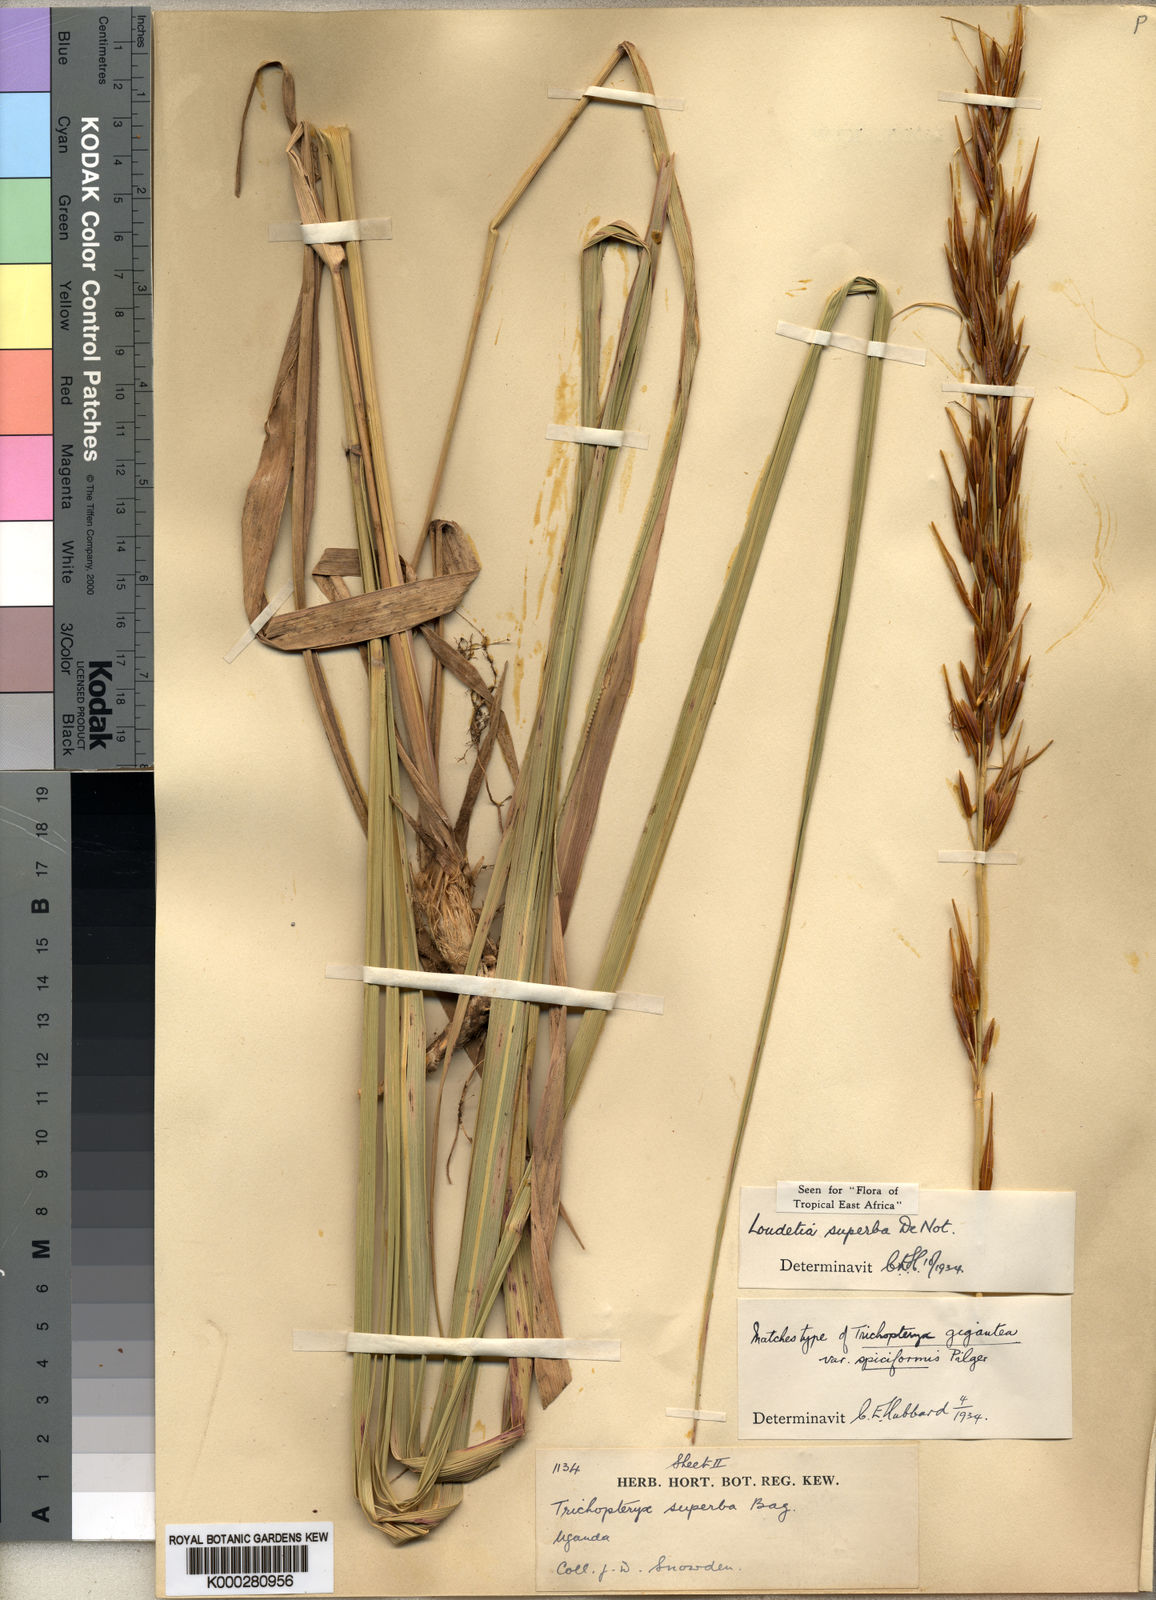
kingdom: Plantae
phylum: Tracheophyta
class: Liliopsida
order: Poales
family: Poaceae
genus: Tristachya
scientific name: Tristachya superba
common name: Giant trident grass
